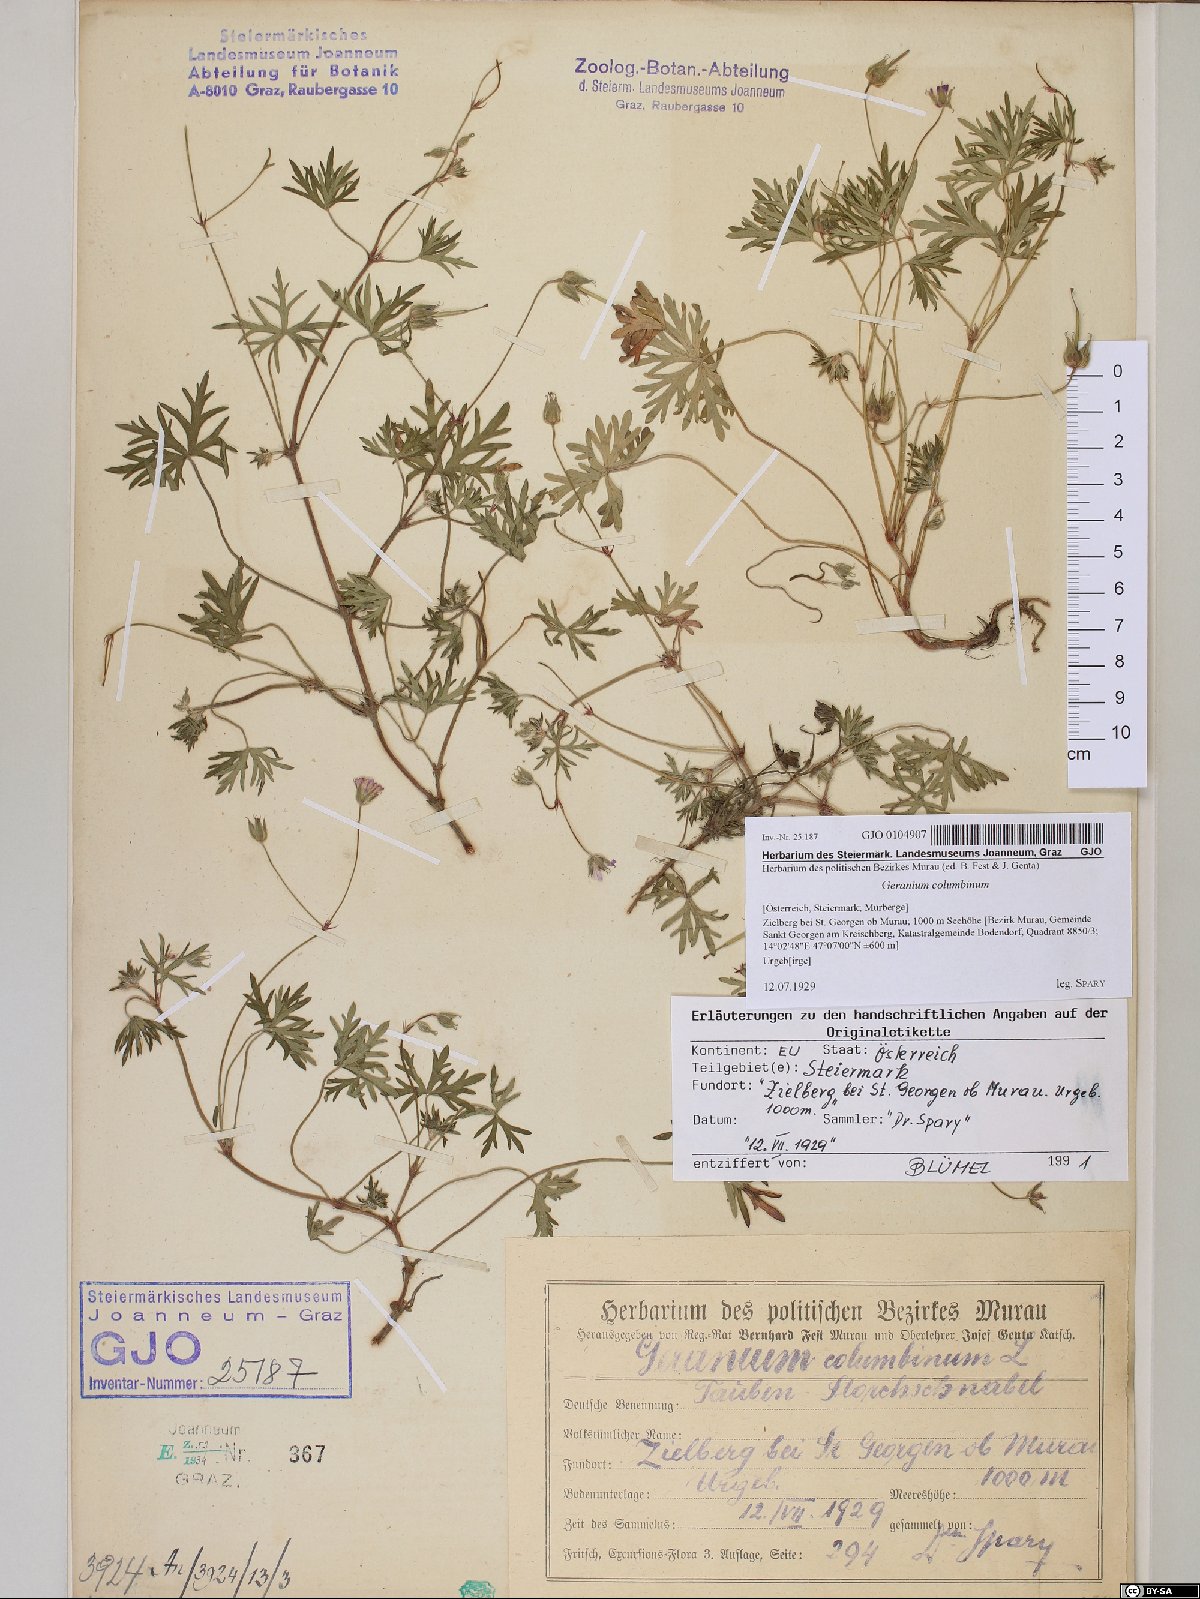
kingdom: Plantae
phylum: Tracheophyta
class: Magnoliopsida
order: Geraniales
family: Geraniaceae
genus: Geranium
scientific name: Geranium columbinum
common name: Long-stalked crane's-bill
